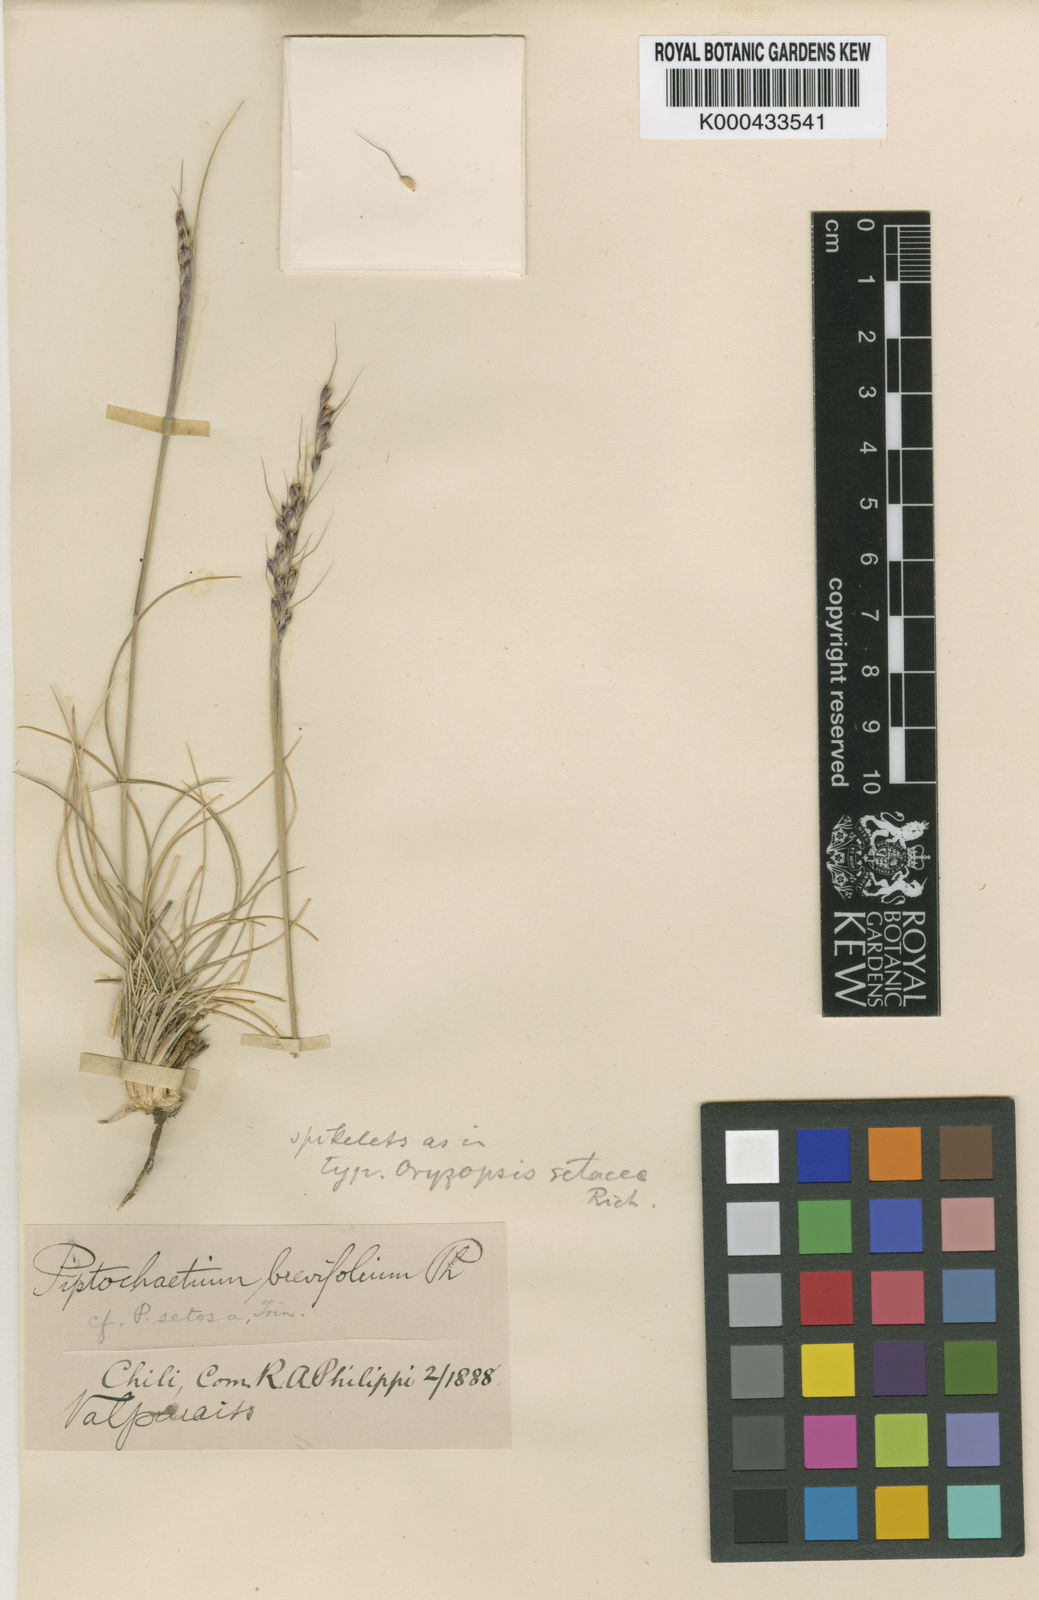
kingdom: Plantae
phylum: Tracheophyta
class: Liliopsida
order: Poales
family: Poaceae
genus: Piptochaetium
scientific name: Piptochaetium hirtum
